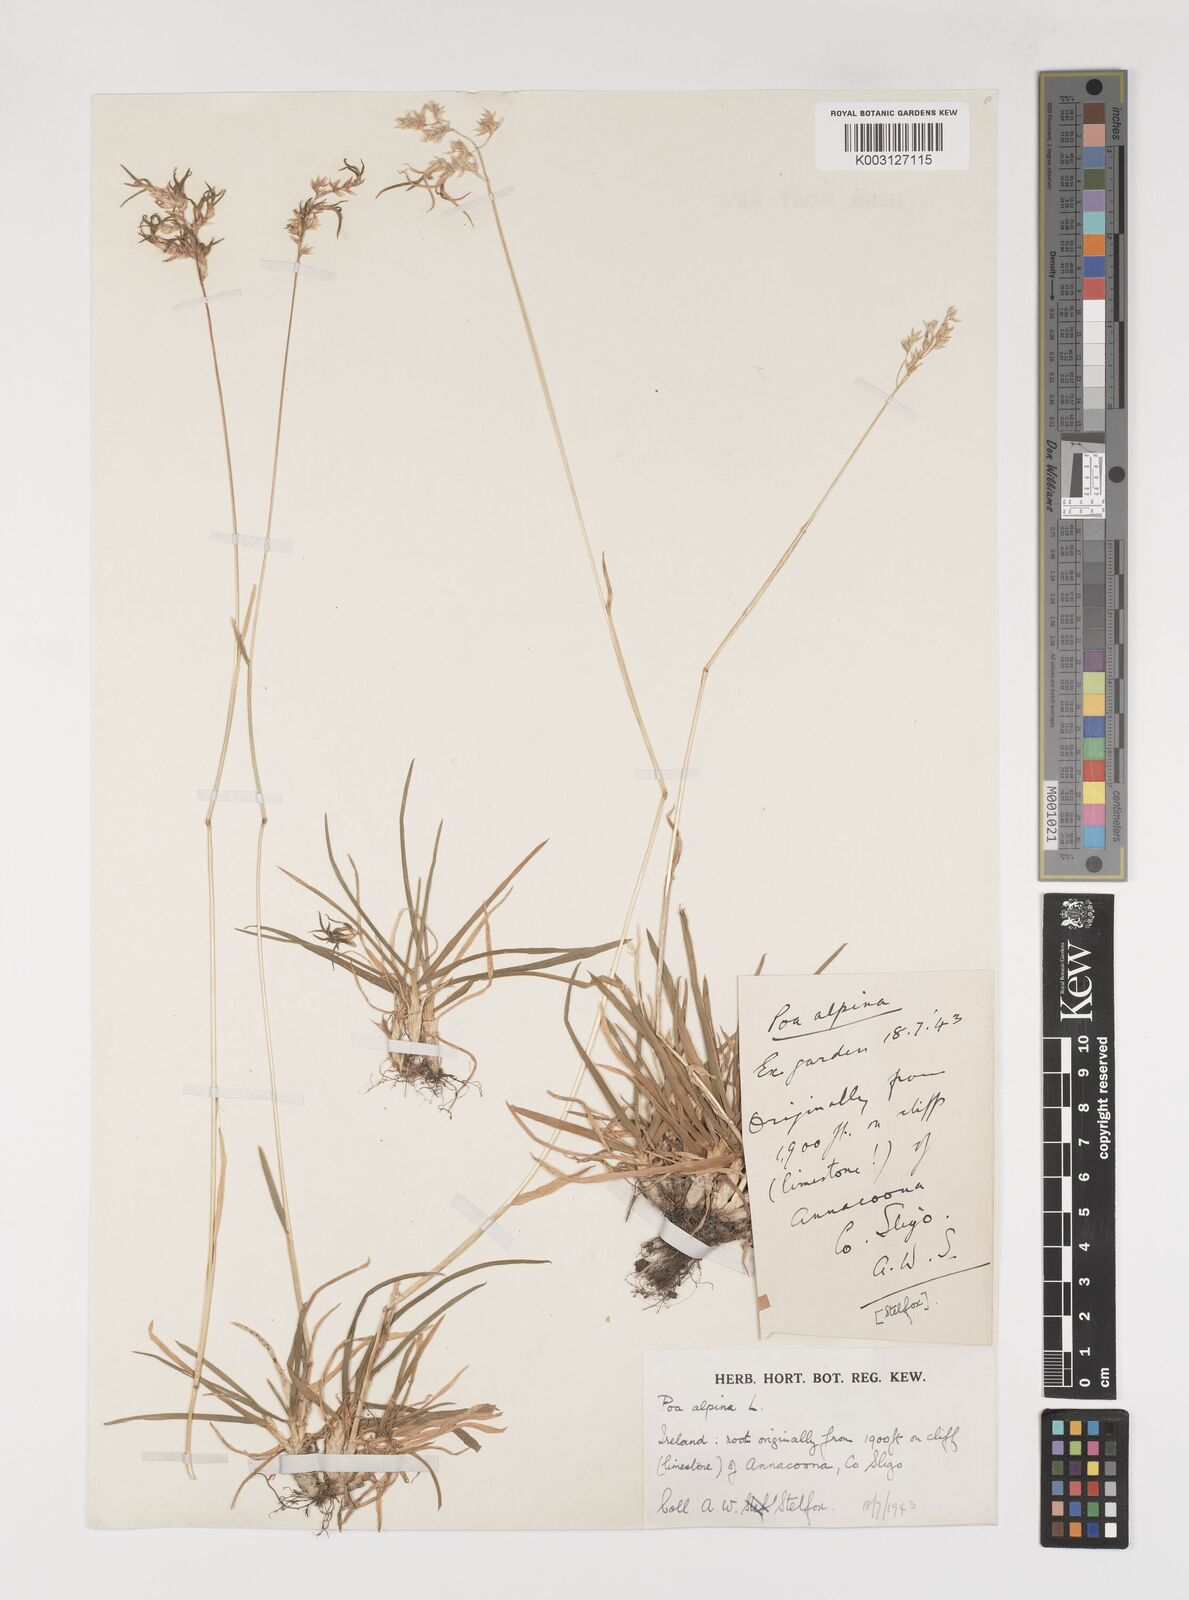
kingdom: Plantae
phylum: Tracheophyta
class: Liliopsida
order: Poales
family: Poaceae
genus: Poa
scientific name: Poa alpina
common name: Alpine bluegrass
